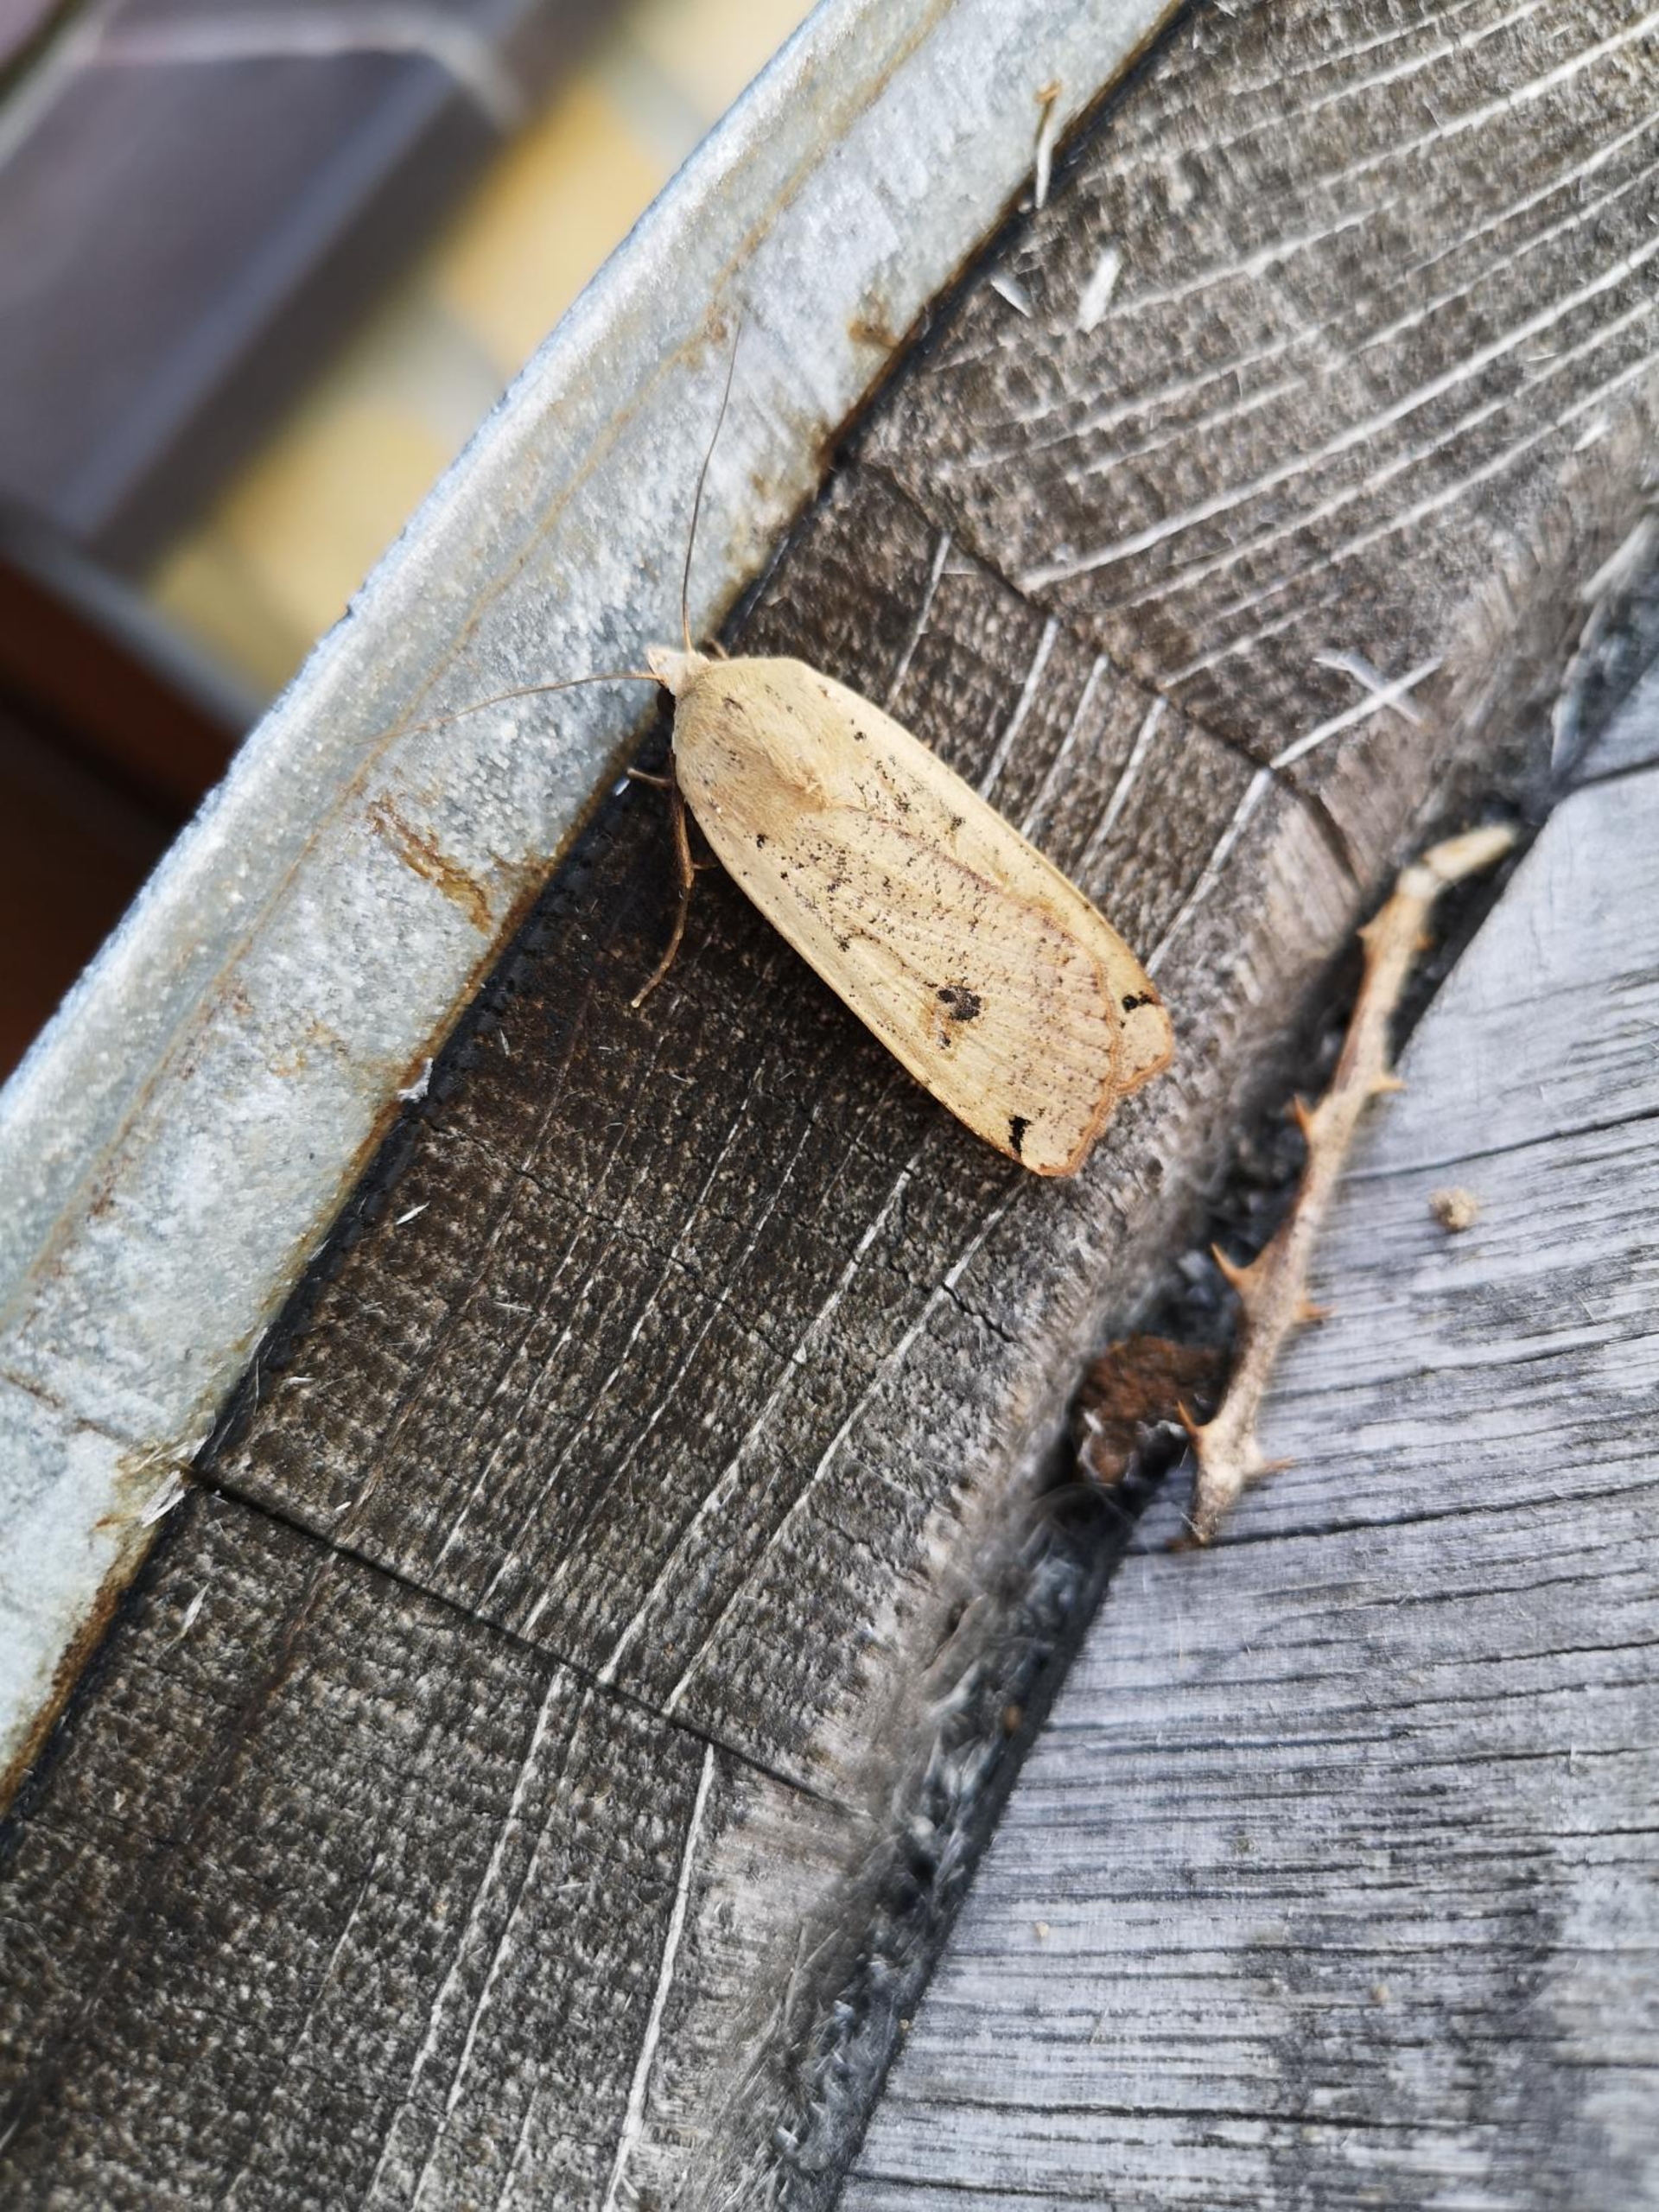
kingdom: Animalia
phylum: Arthropoda
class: Insecta
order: Lepidoptera
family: Noctuidae
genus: Noctua
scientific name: Noctua pronuba
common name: Stor smutugle
